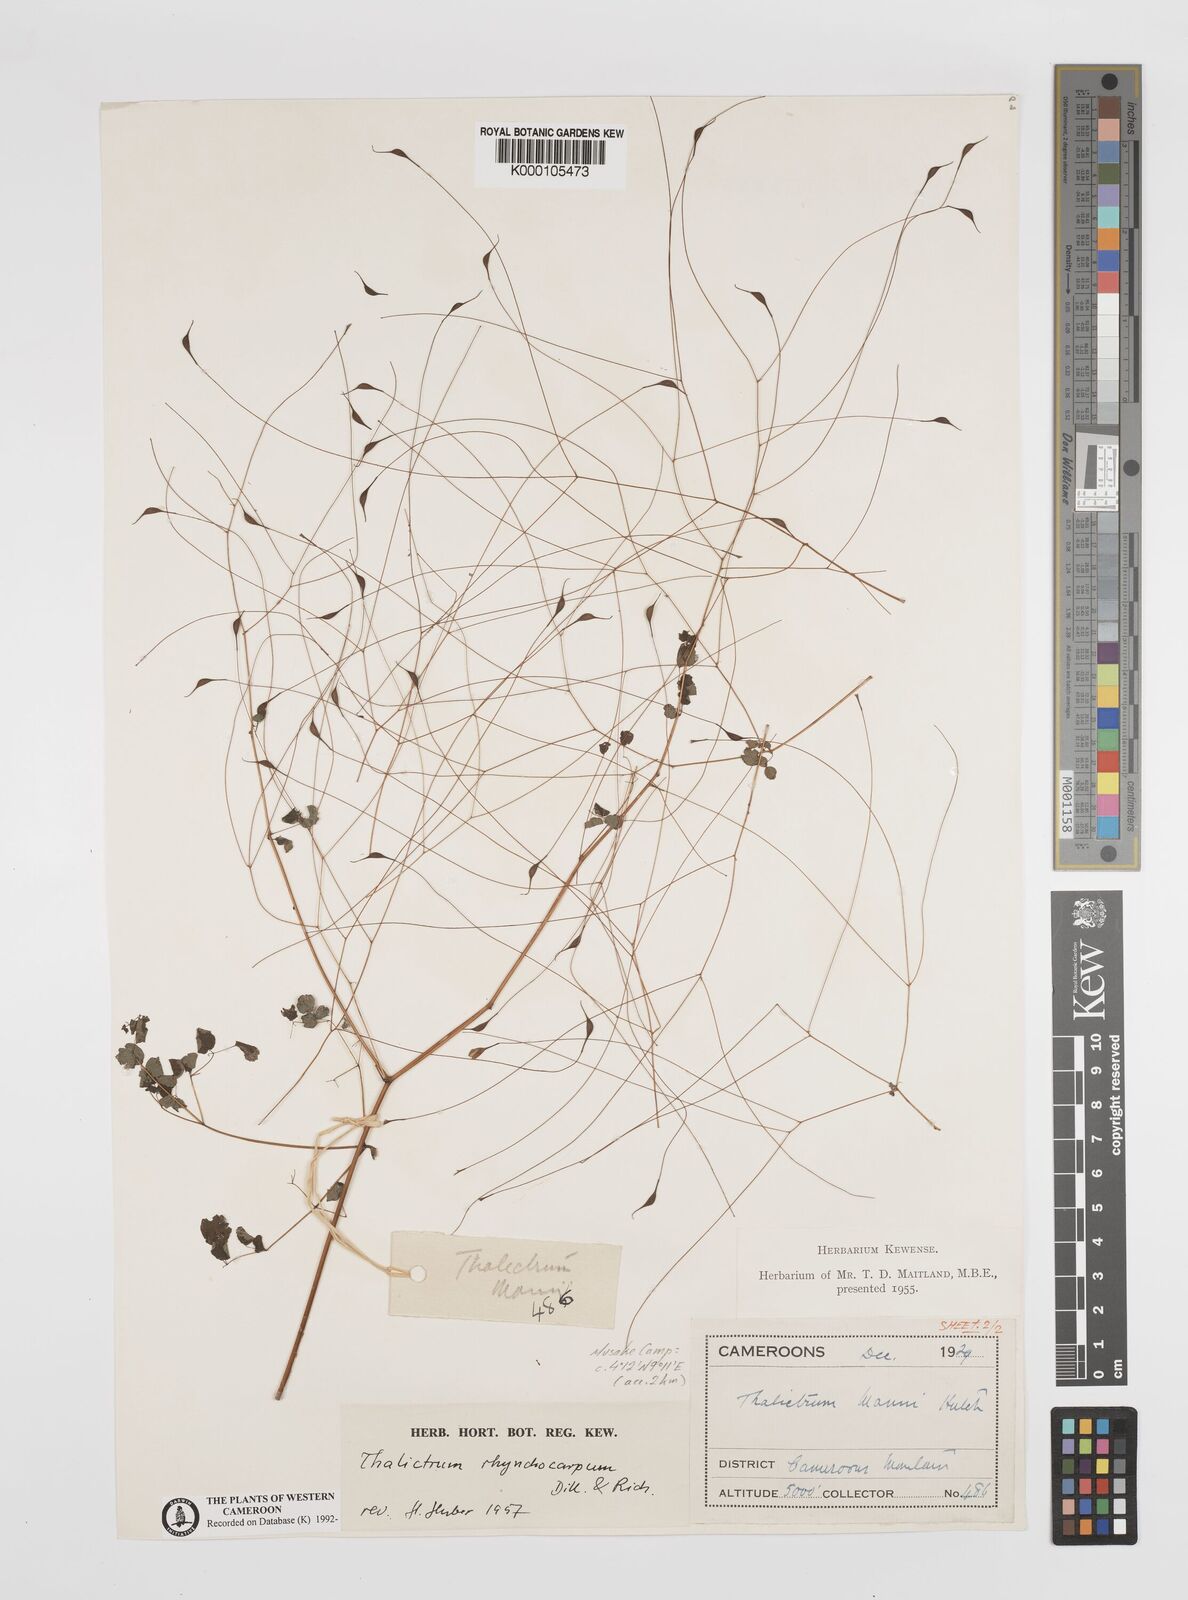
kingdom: Plantae
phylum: Tracheophyta
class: Magnoliopsida
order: Ranunculales
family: Ranunculaceae
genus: Thalictrum
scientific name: Thalictrum
